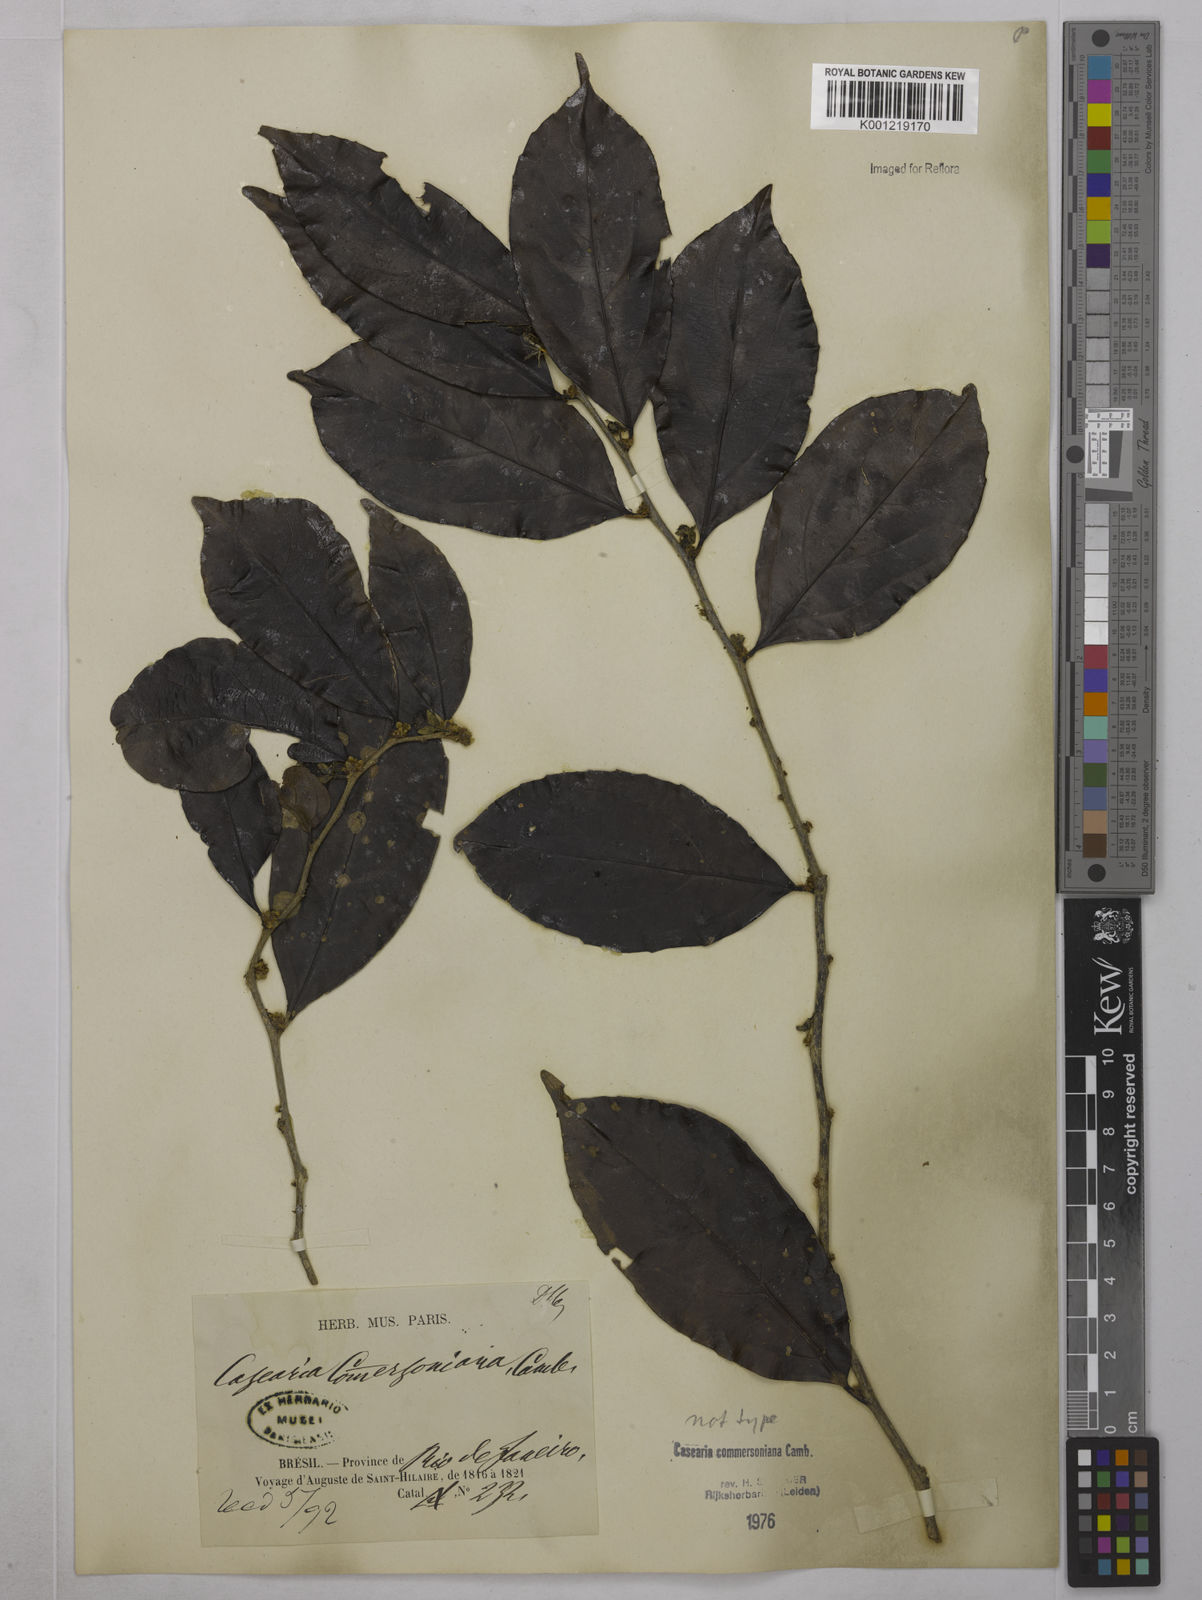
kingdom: Plantae
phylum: Tracheophyta
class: Magnoliopsida
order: Malpighiales
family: Salicaceae
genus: Piparea
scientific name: Piparea dentata
